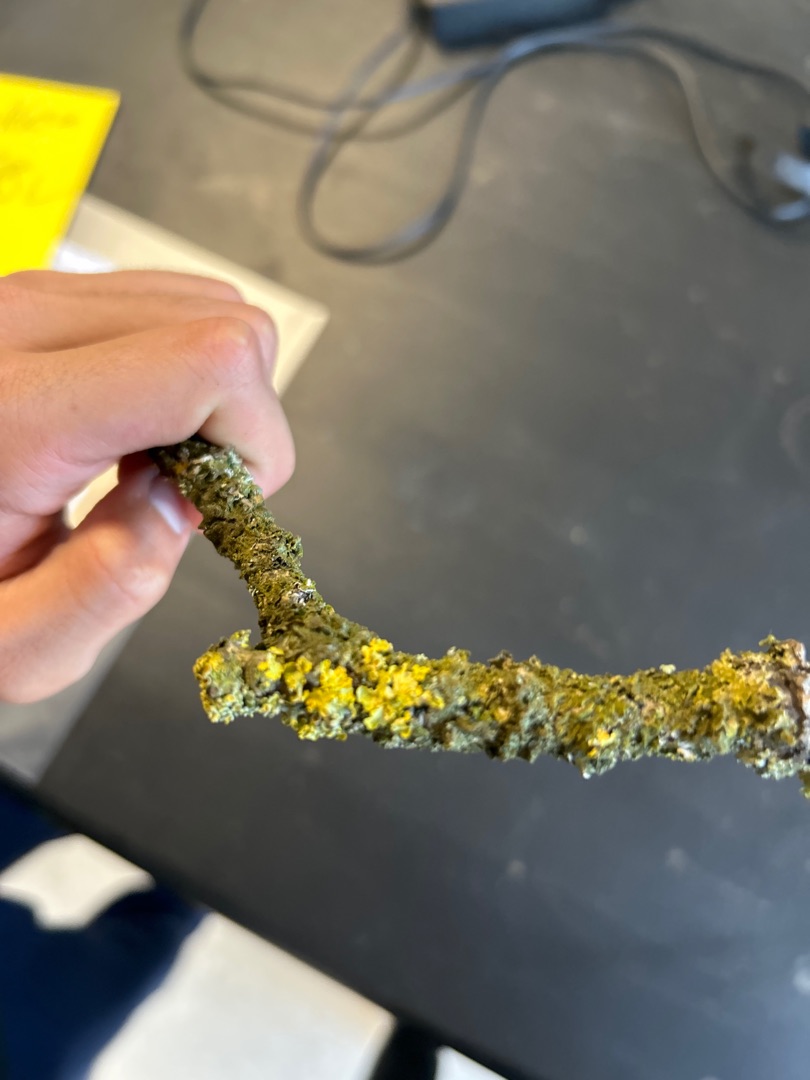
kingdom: Fungi
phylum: Ascomycota
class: Lecanoromycetes
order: Teloschistales
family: Teloschistaceae
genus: Xanthoria
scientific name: Xanthoria parietina
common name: Almindelig væggelav
